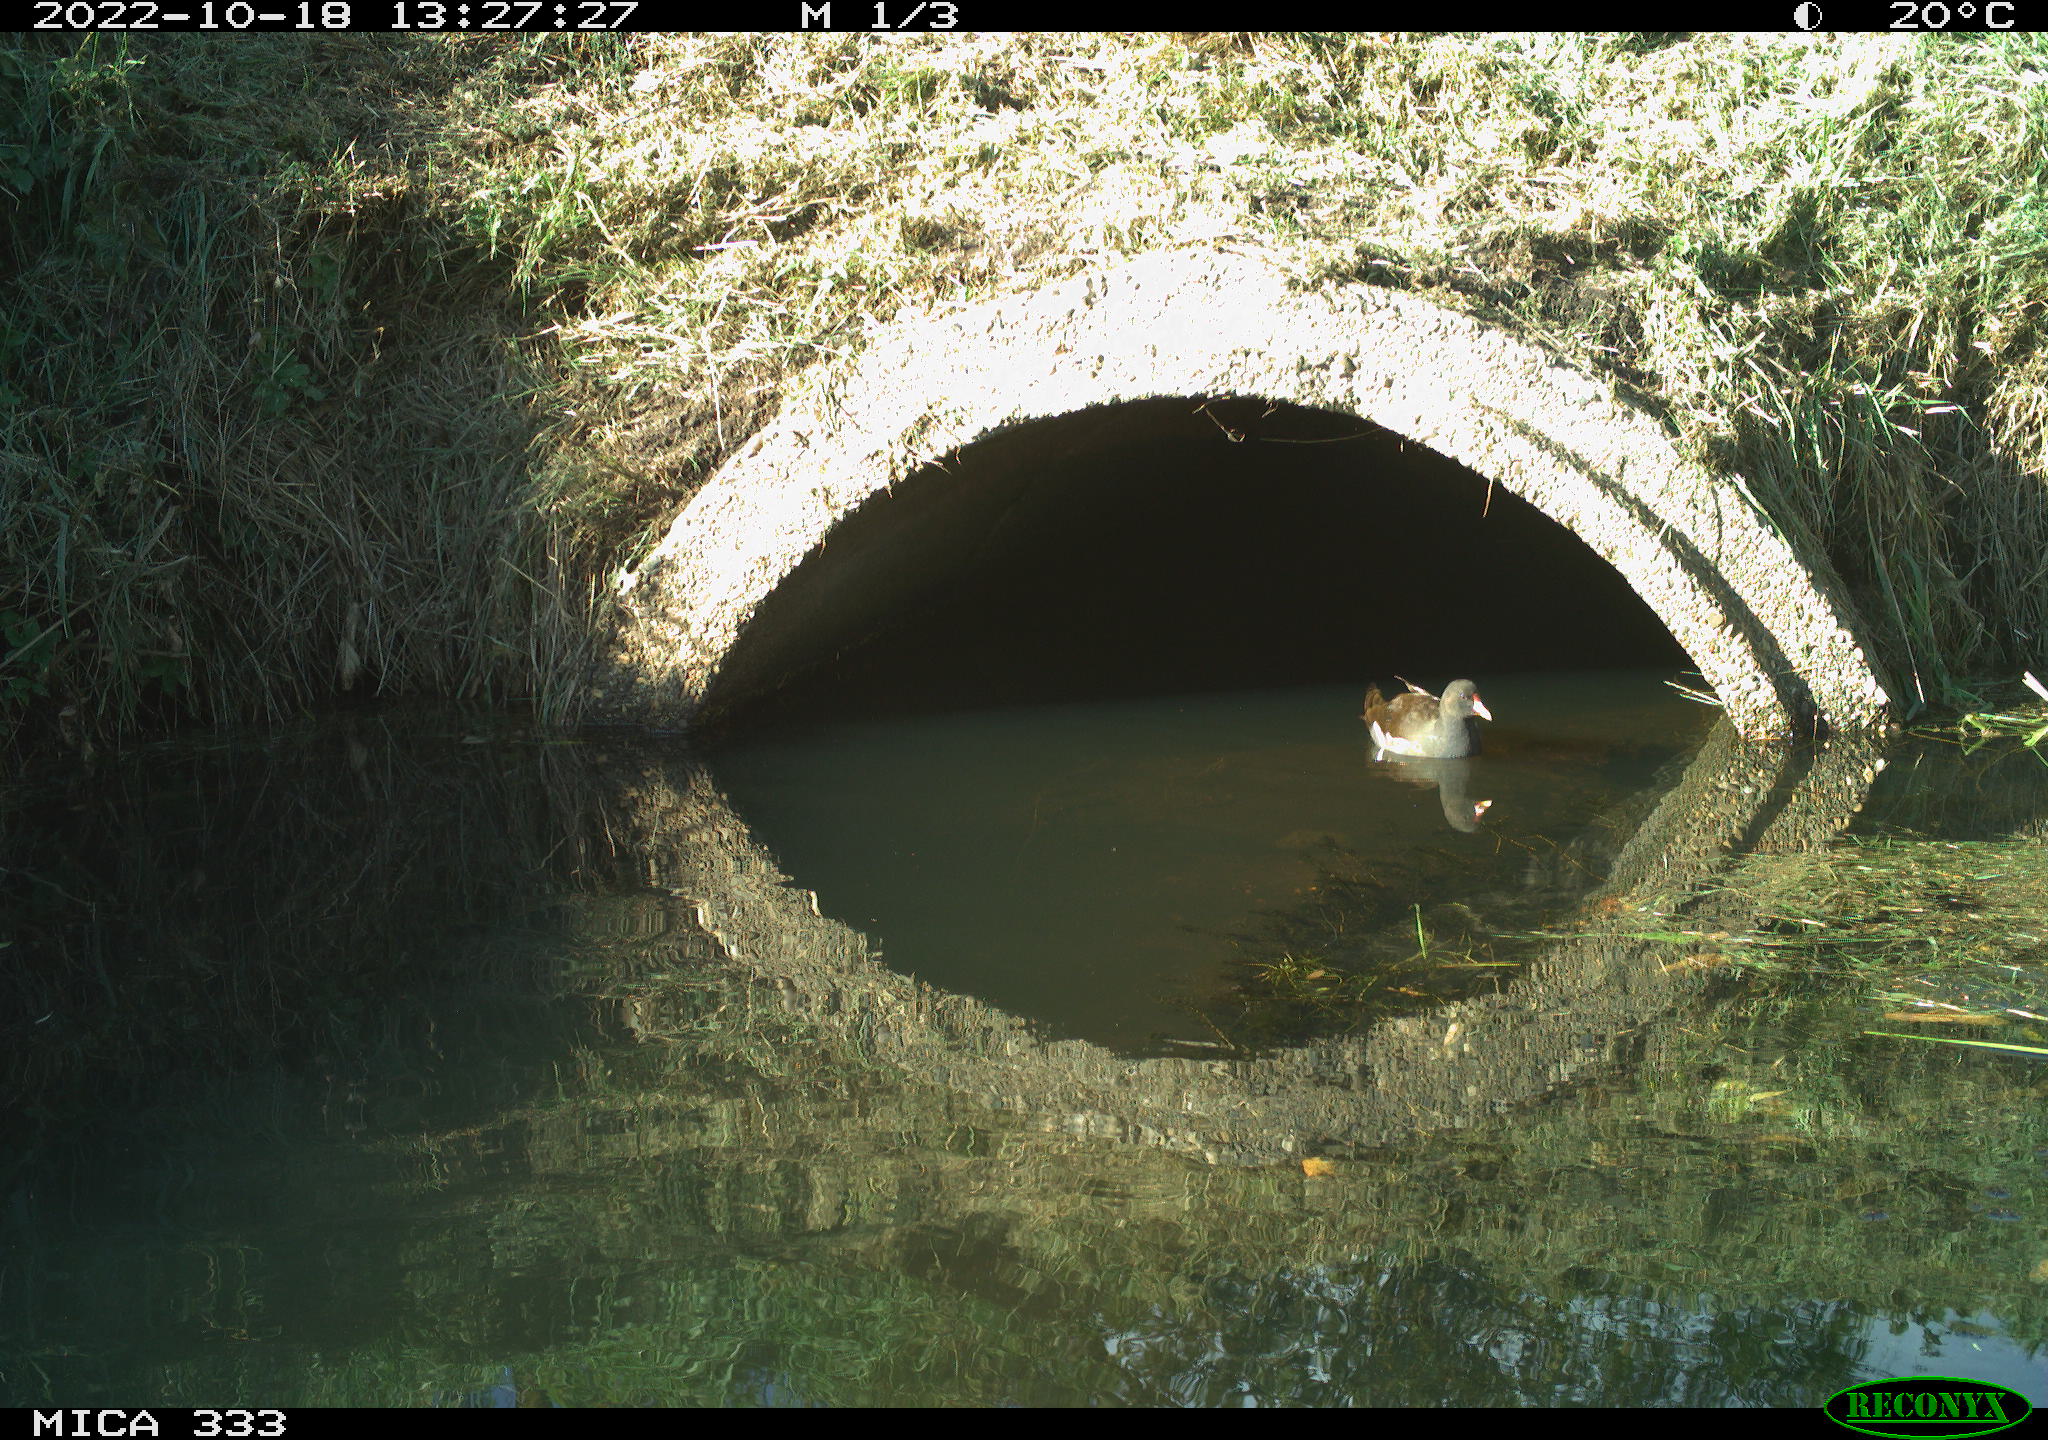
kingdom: Animalia
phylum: Chordata
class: Aves
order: Gruiformes
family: Rallidae
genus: Gallinula
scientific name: Gallinula chloropus
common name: Common moorhen
